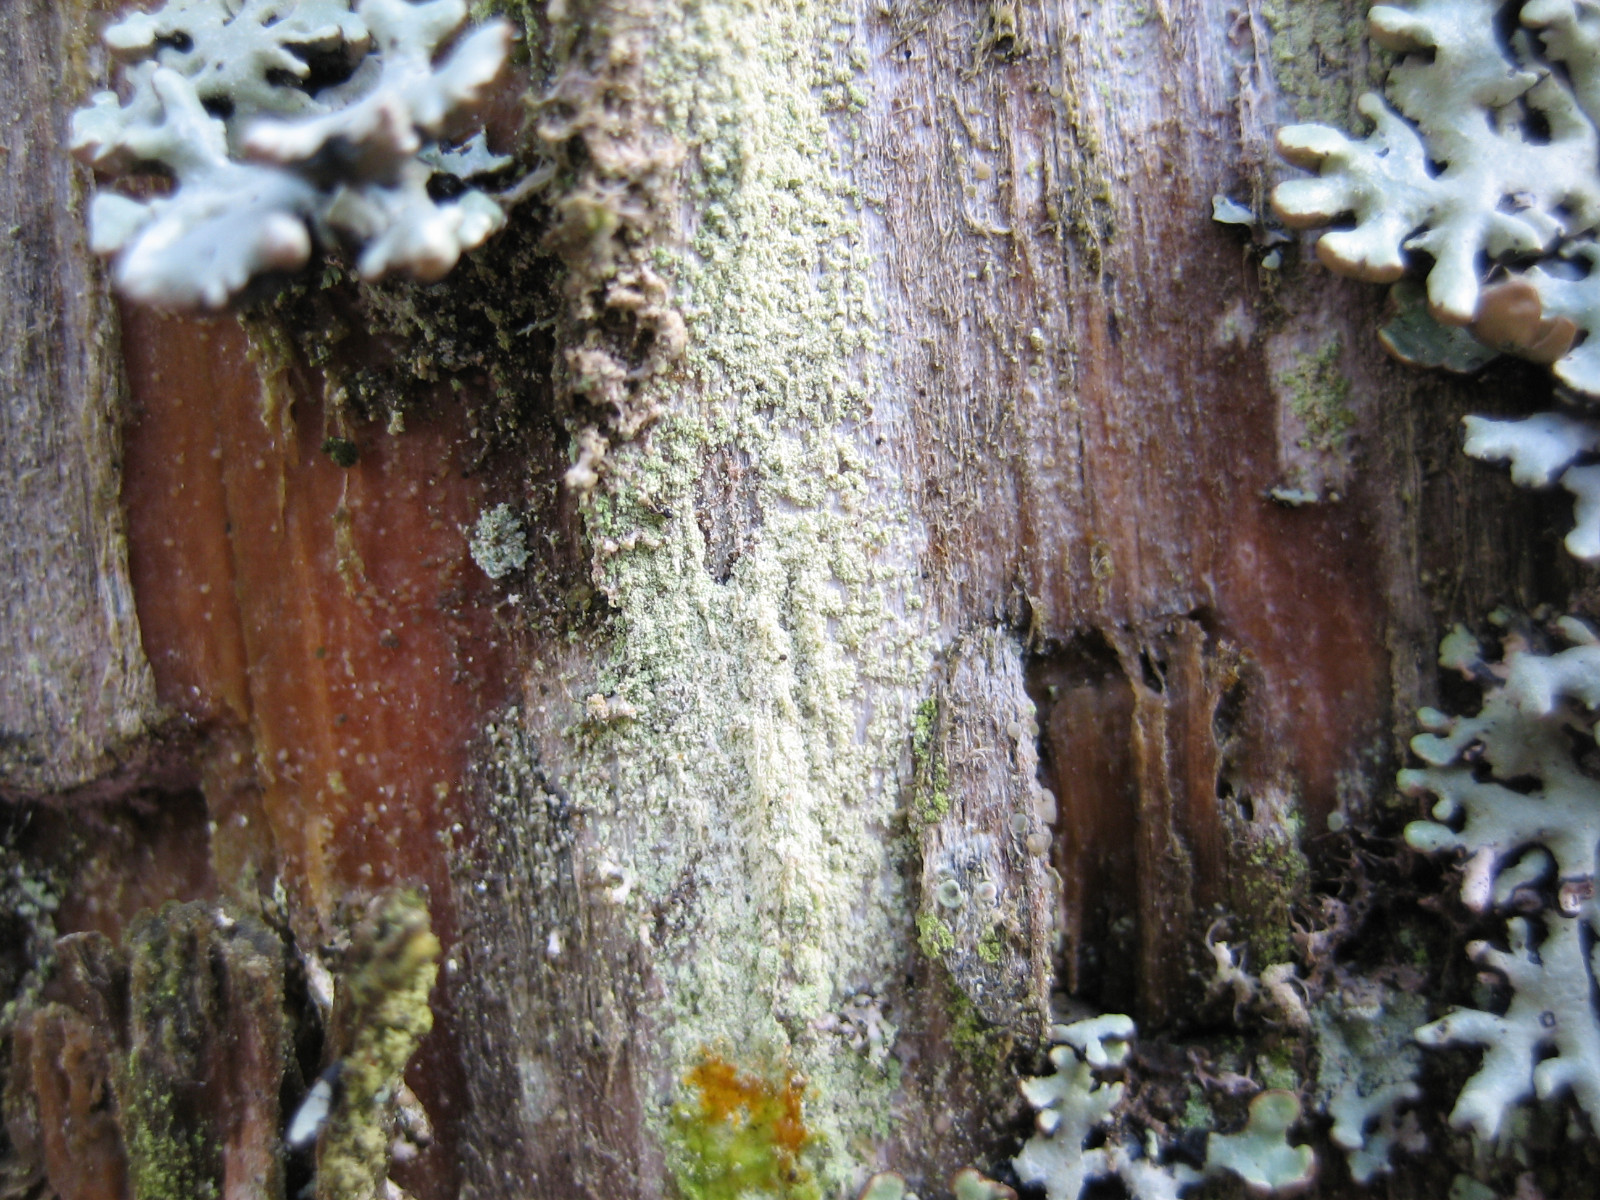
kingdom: Fungi
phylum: Ascomycota
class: Lecanoromycetes
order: Lecanorales
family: Lecanoraceae
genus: Lecanora
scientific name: Lecanora expallens
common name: bleggul kantskivelav
